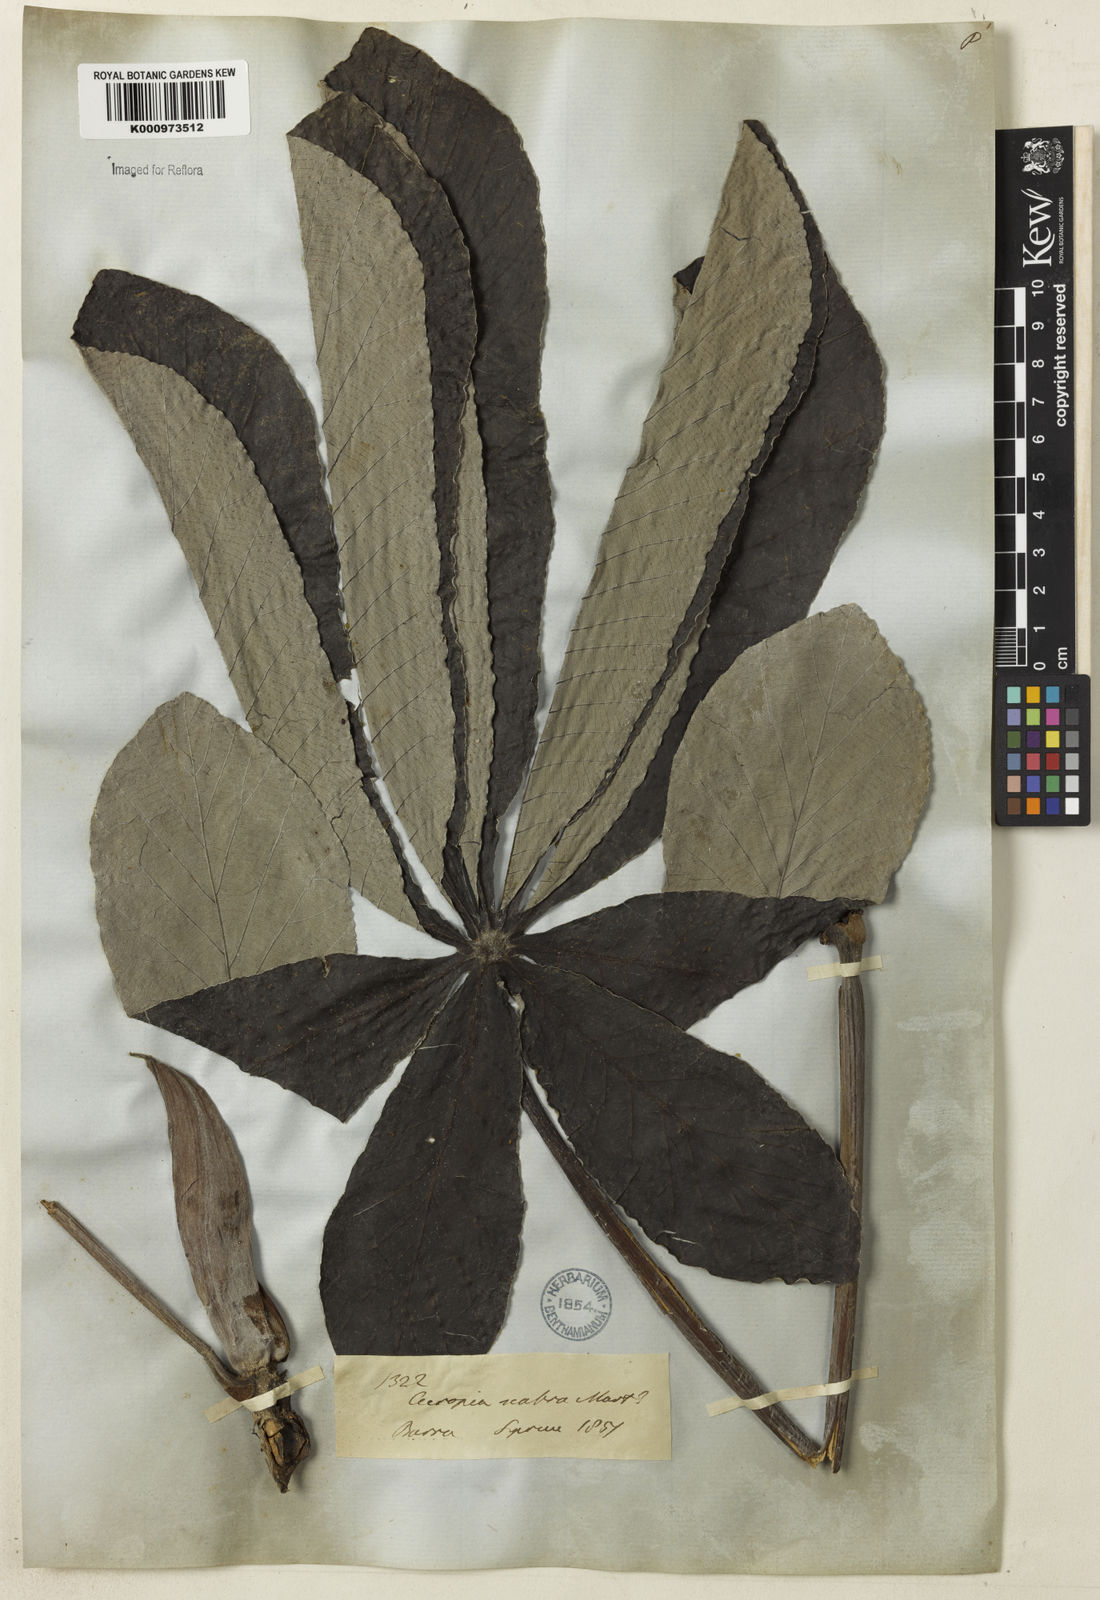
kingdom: Plantae
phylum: Tracheophyta
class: Magnoliopsida
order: Rosales
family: Urticaceae
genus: Cecropia
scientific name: Cecropia concolor
